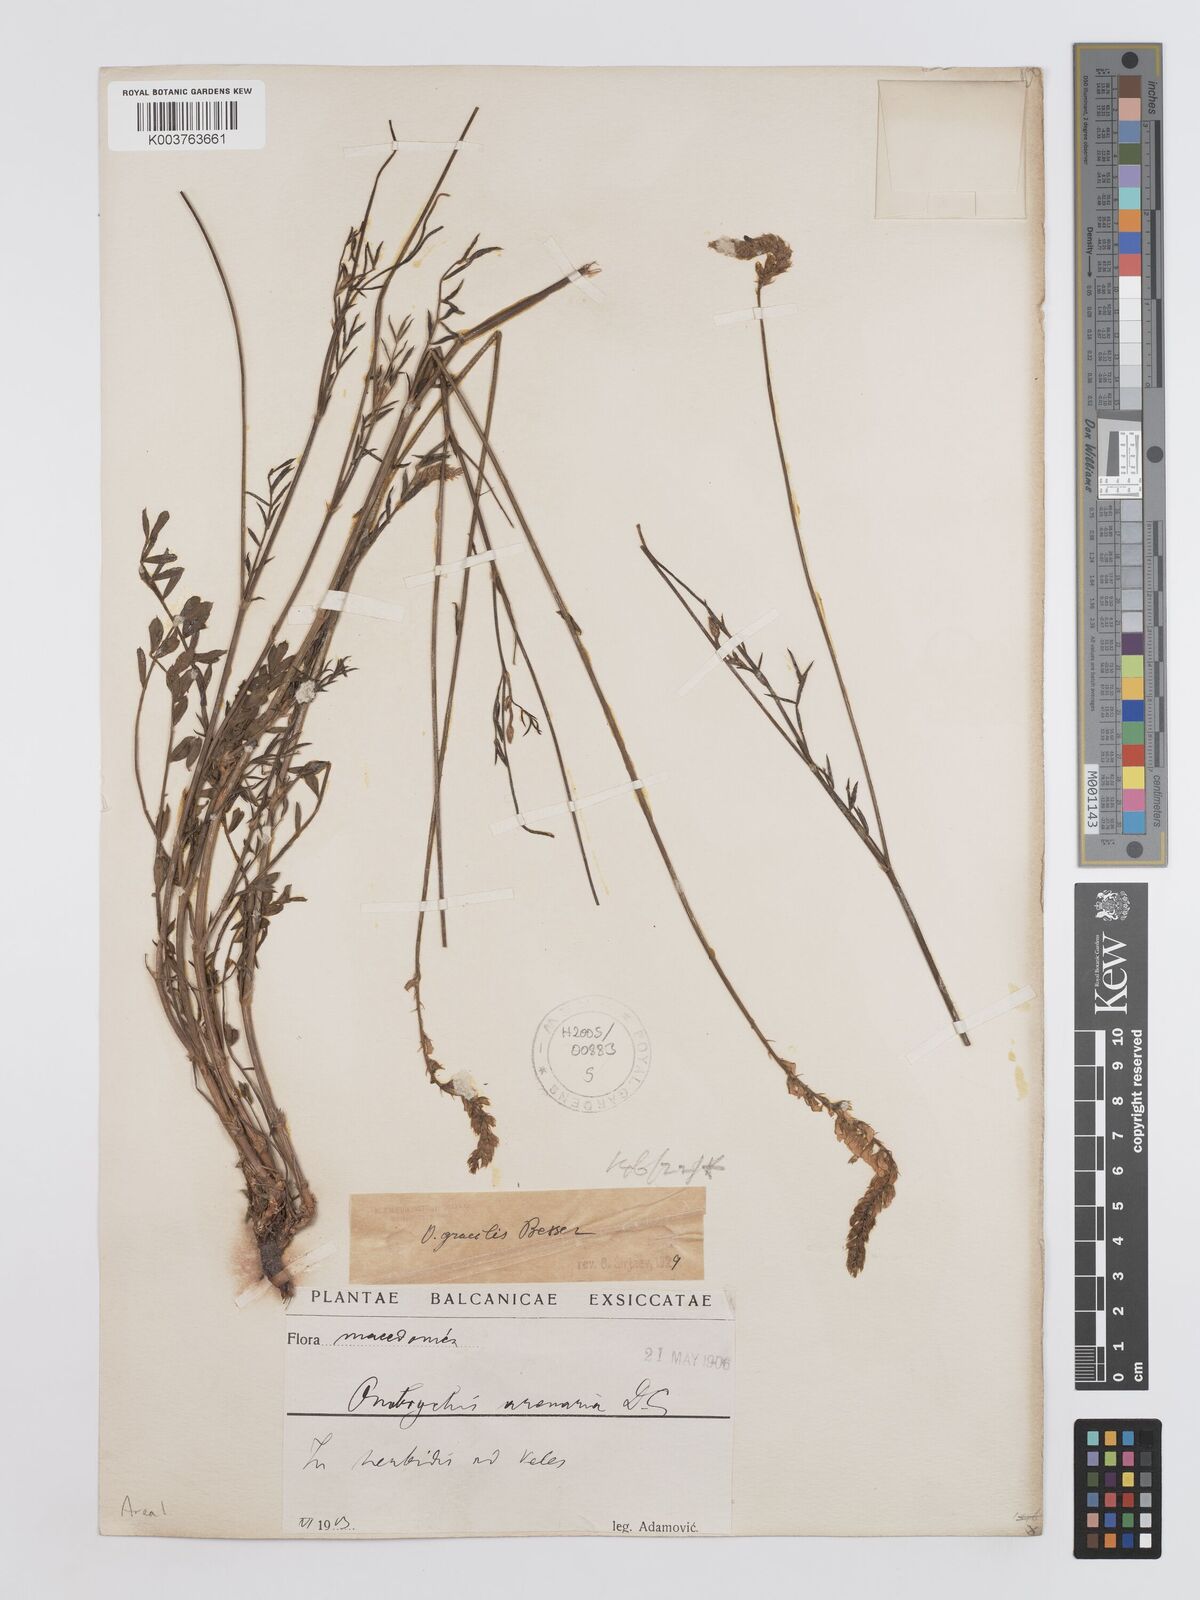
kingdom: Plantae
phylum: Tracheophyta
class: Magnoliopsida
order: Fabales
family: Fabaceae
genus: Onobrychis
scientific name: Onobrychis gracilis
